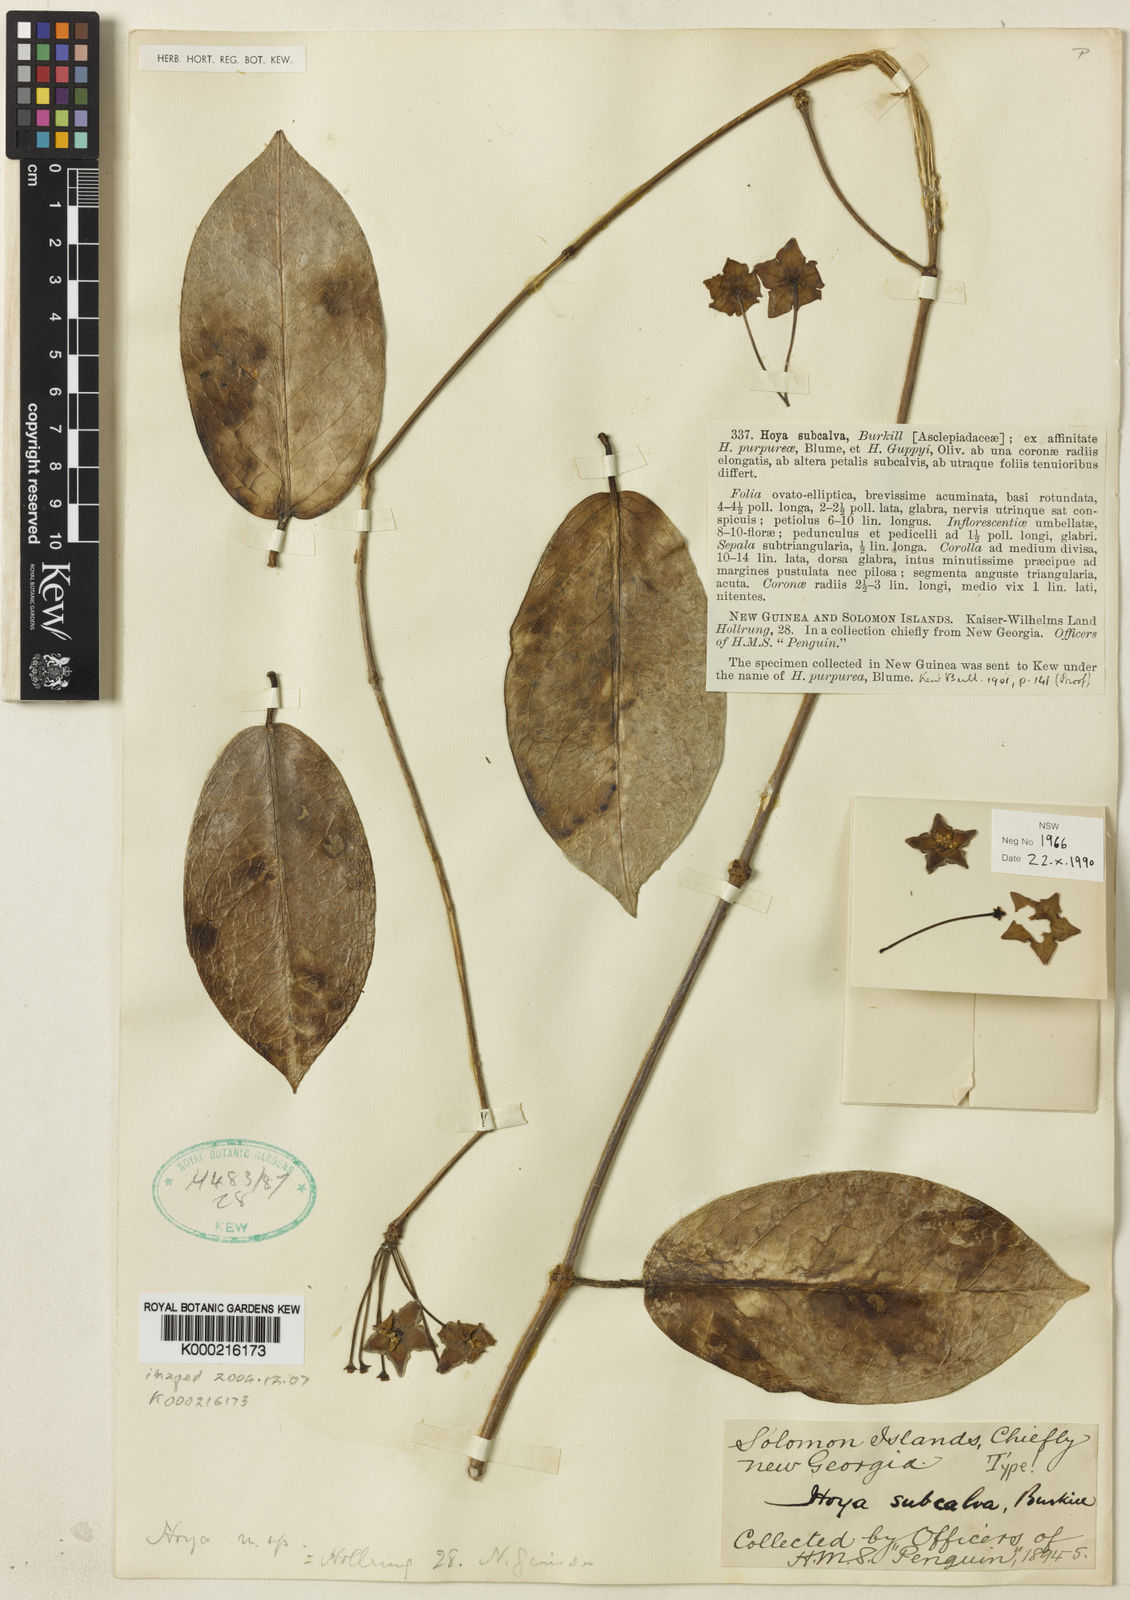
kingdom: Plantae
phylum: Tracheophyta
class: Magnoliopsida
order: Gentianales
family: Apocynaceae
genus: Hoya
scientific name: Hoya subcalva
